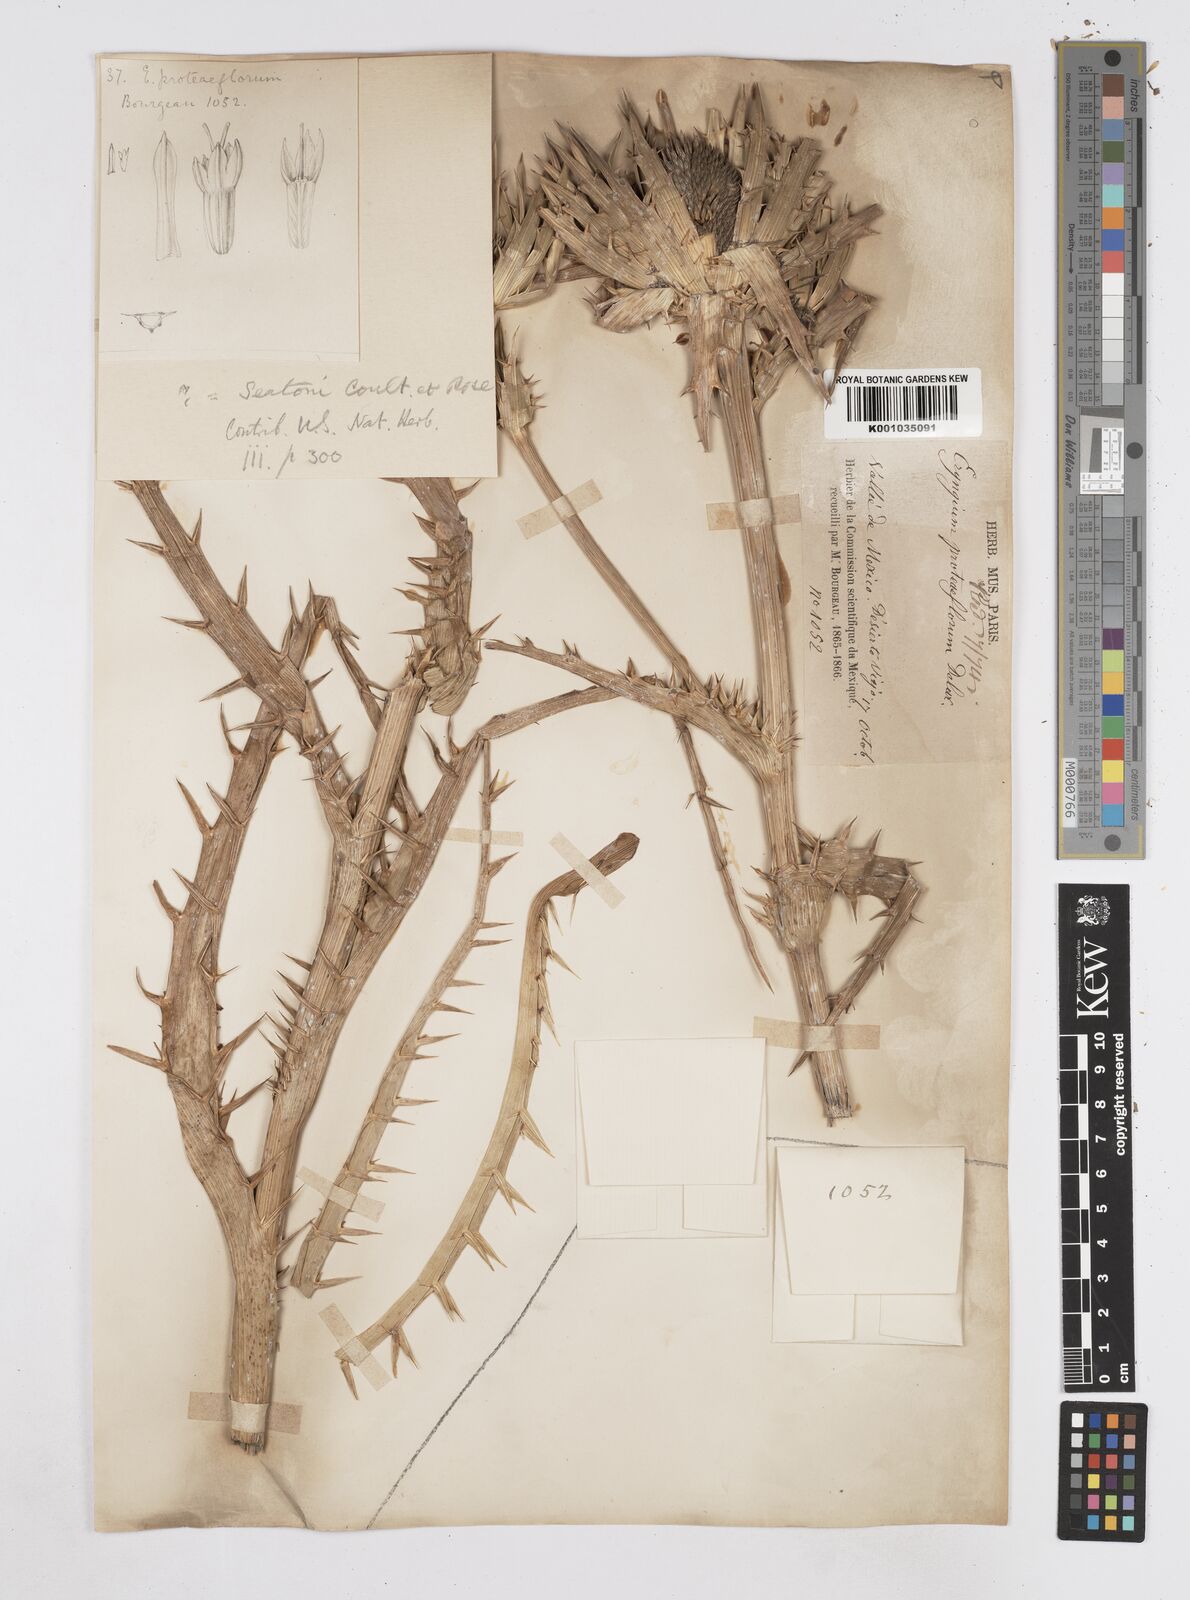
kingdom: Plantae
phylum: Tracheophyta
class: Magnoliopsida
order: Apiales
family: Apiaceae
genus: Eryngium
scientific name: Eryngium proteiflorum
